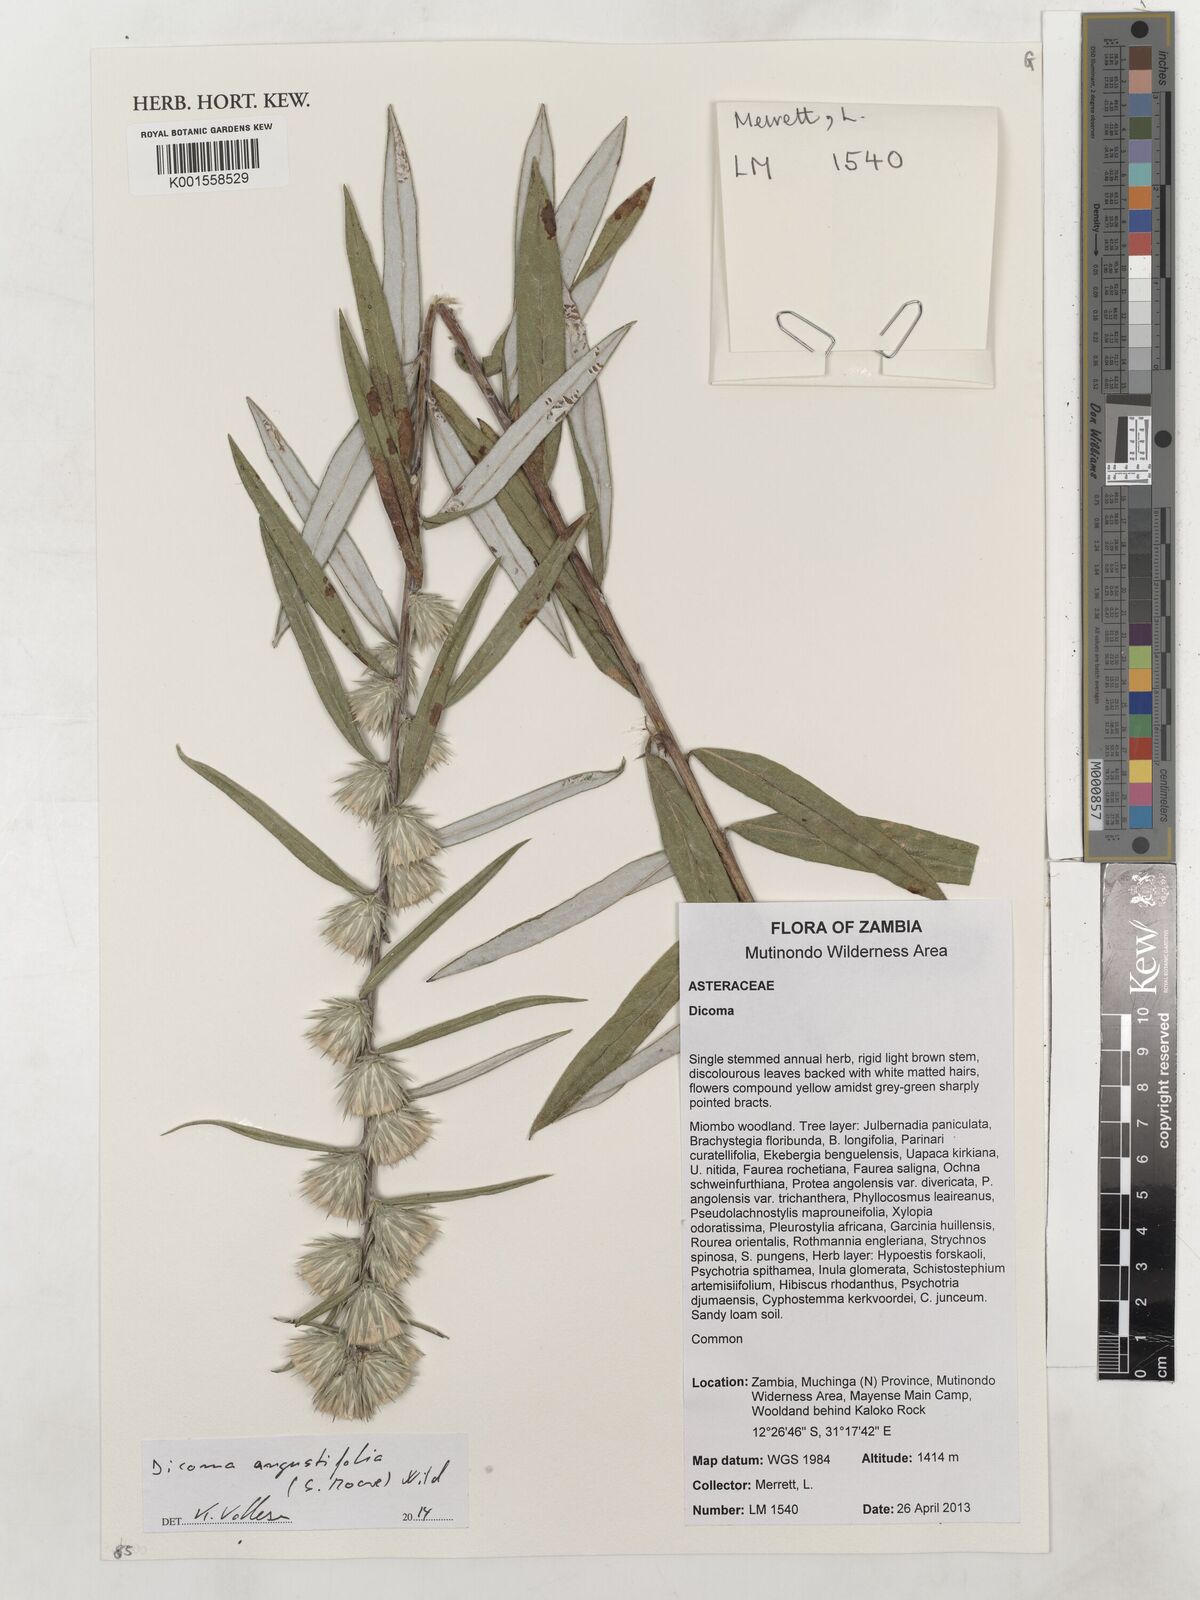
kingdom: Plantae
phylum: Tracheophyta
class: Magnoliopsida
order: Asterales
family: Asteraceae
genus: Macledium
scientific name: Macledium poggei
